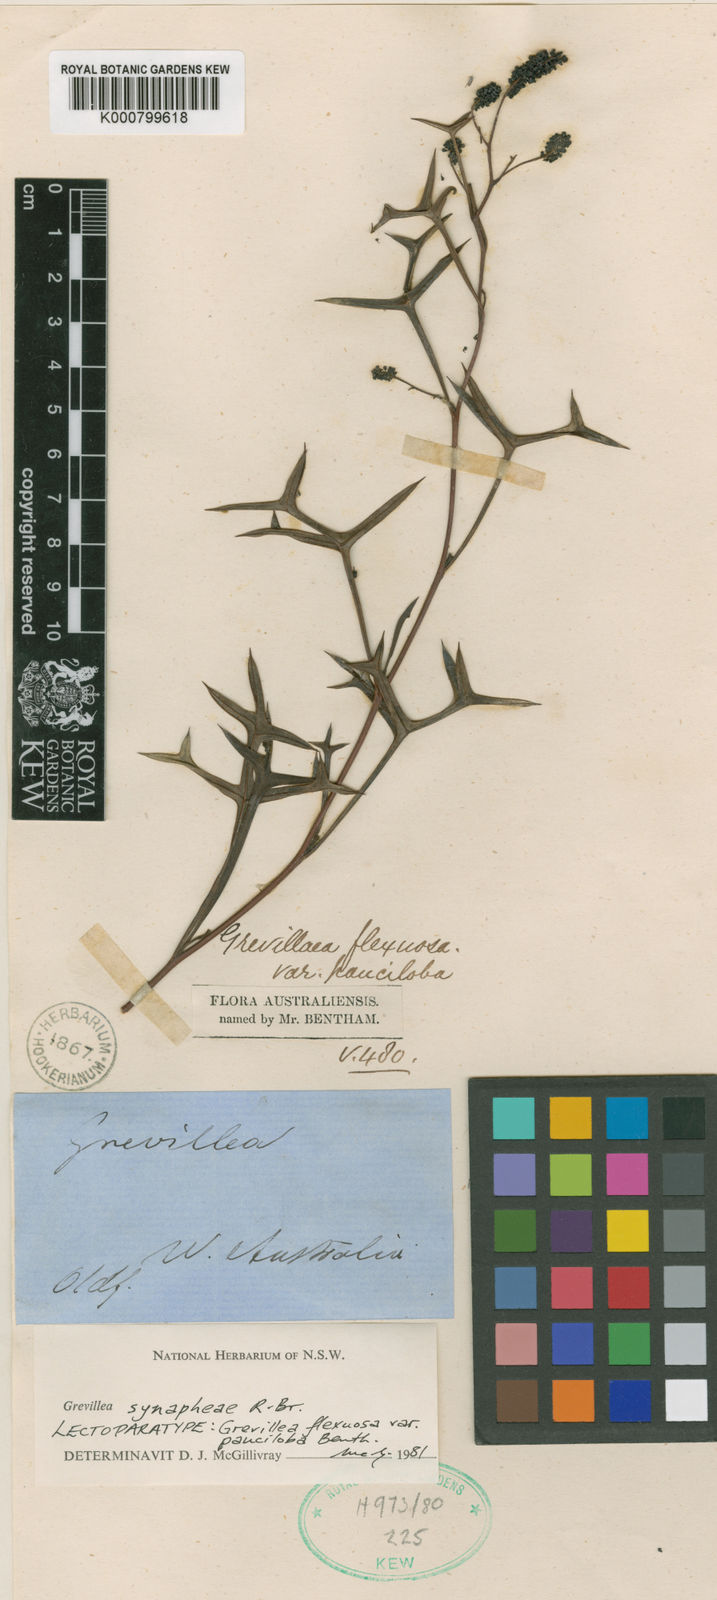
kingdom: Plantae
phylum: Tracheophyta
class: Magnoliopsida
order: Proteales
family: Proteaceae
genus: Grevillea
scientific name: Grevillea synaphea
